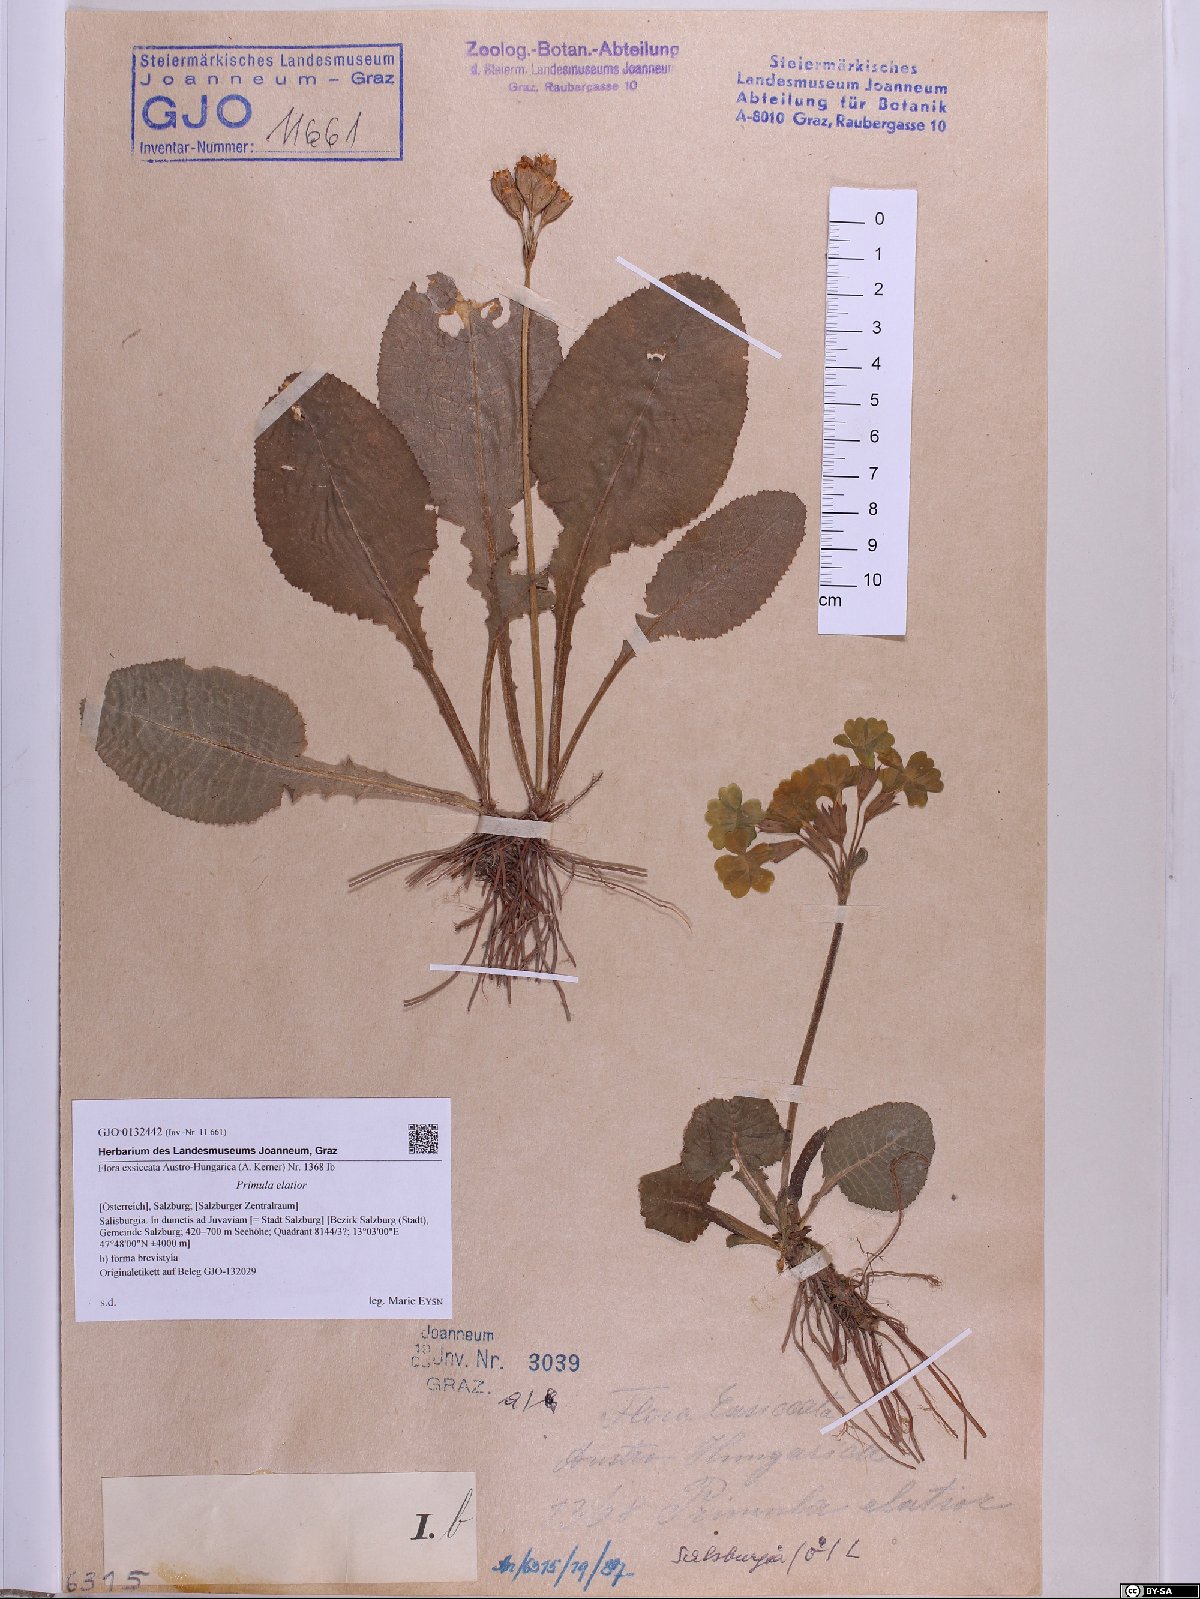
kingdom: Plantae
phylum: Tracheophyta
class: Magnoliopsida
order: Ericales
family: Primulaceae
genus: Primula
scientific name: Primula elatior
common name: Oxlip
